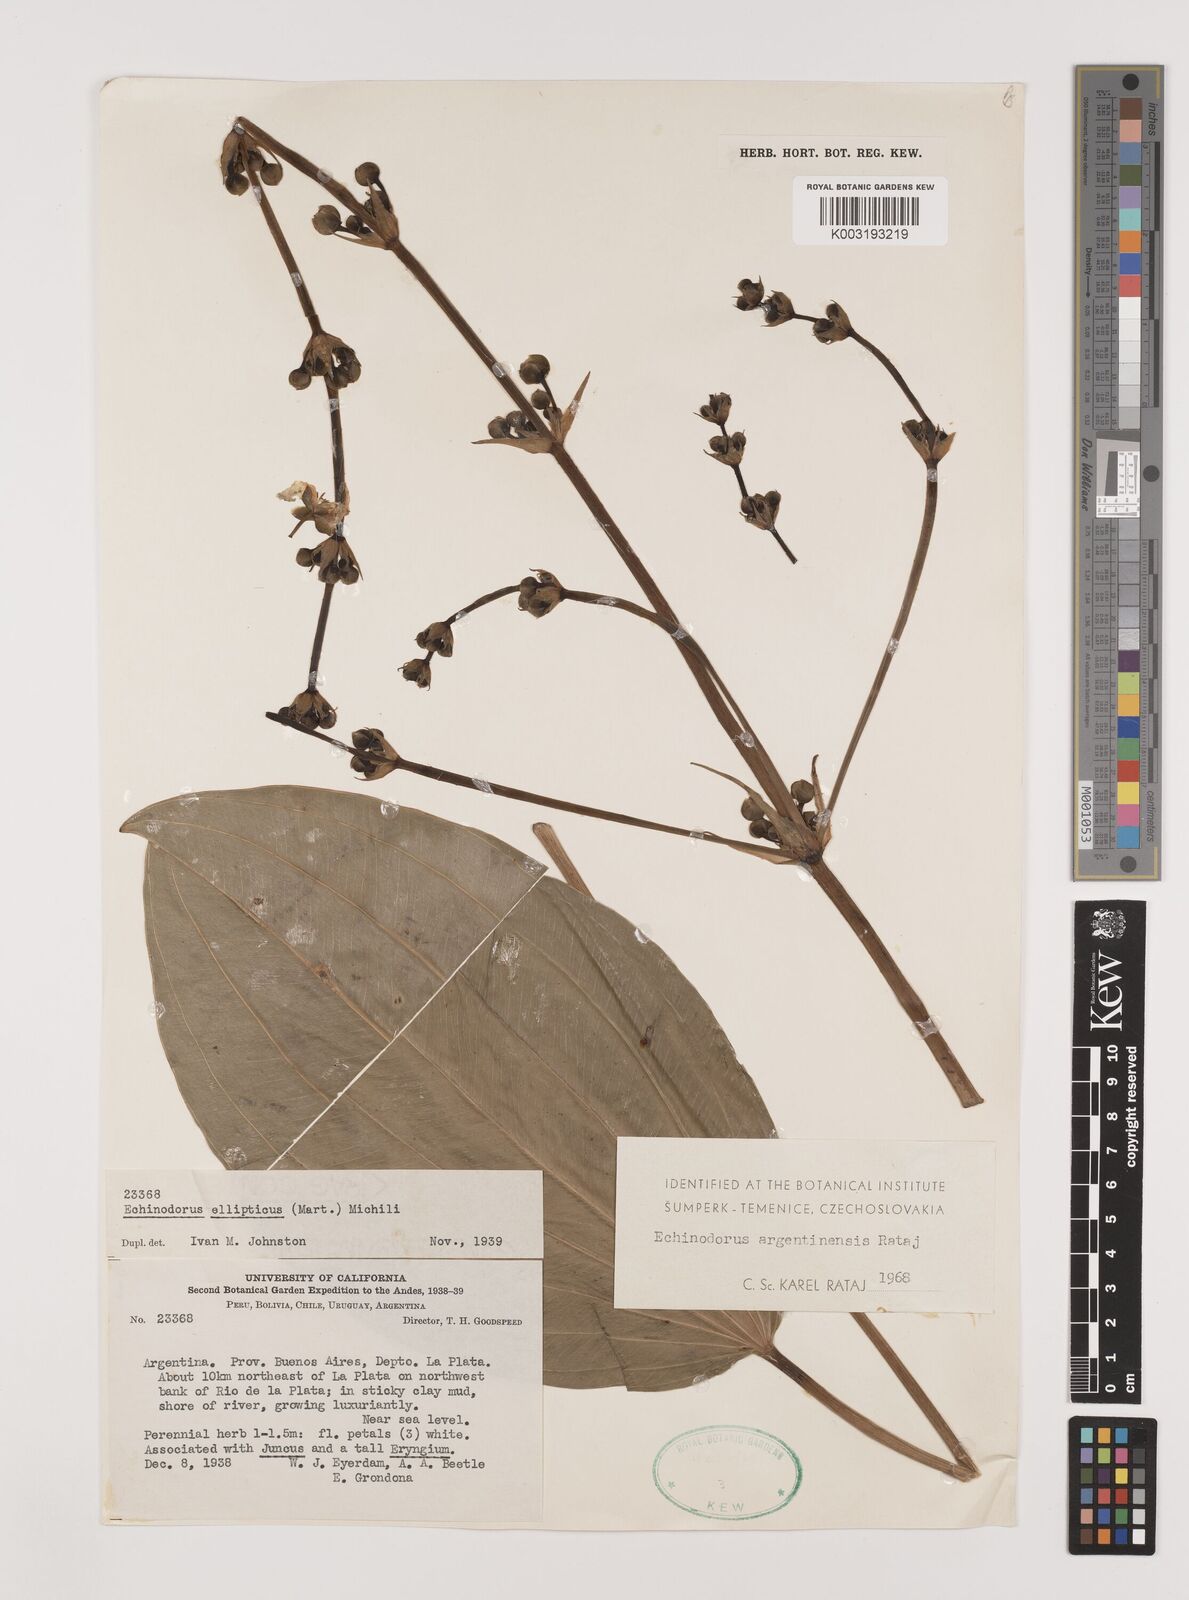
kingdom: Plantae
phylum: Tracheophyta
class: Liliopsida
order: Alismatales
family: Alismataceae
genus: Aquarius
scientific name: Aquarius grandiflorus
